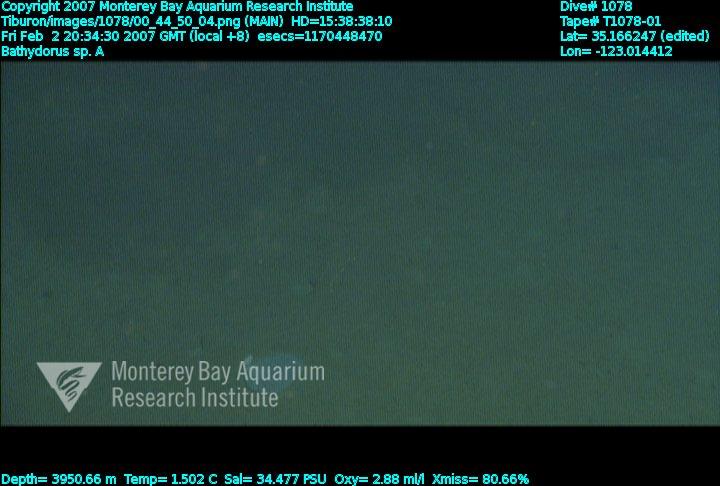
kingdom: Animalia
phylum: Porifera
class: Hexactinellida
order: Lyssacinosida
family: Rossellidae
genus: Bathydorus
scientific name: Bathydorus laniger
